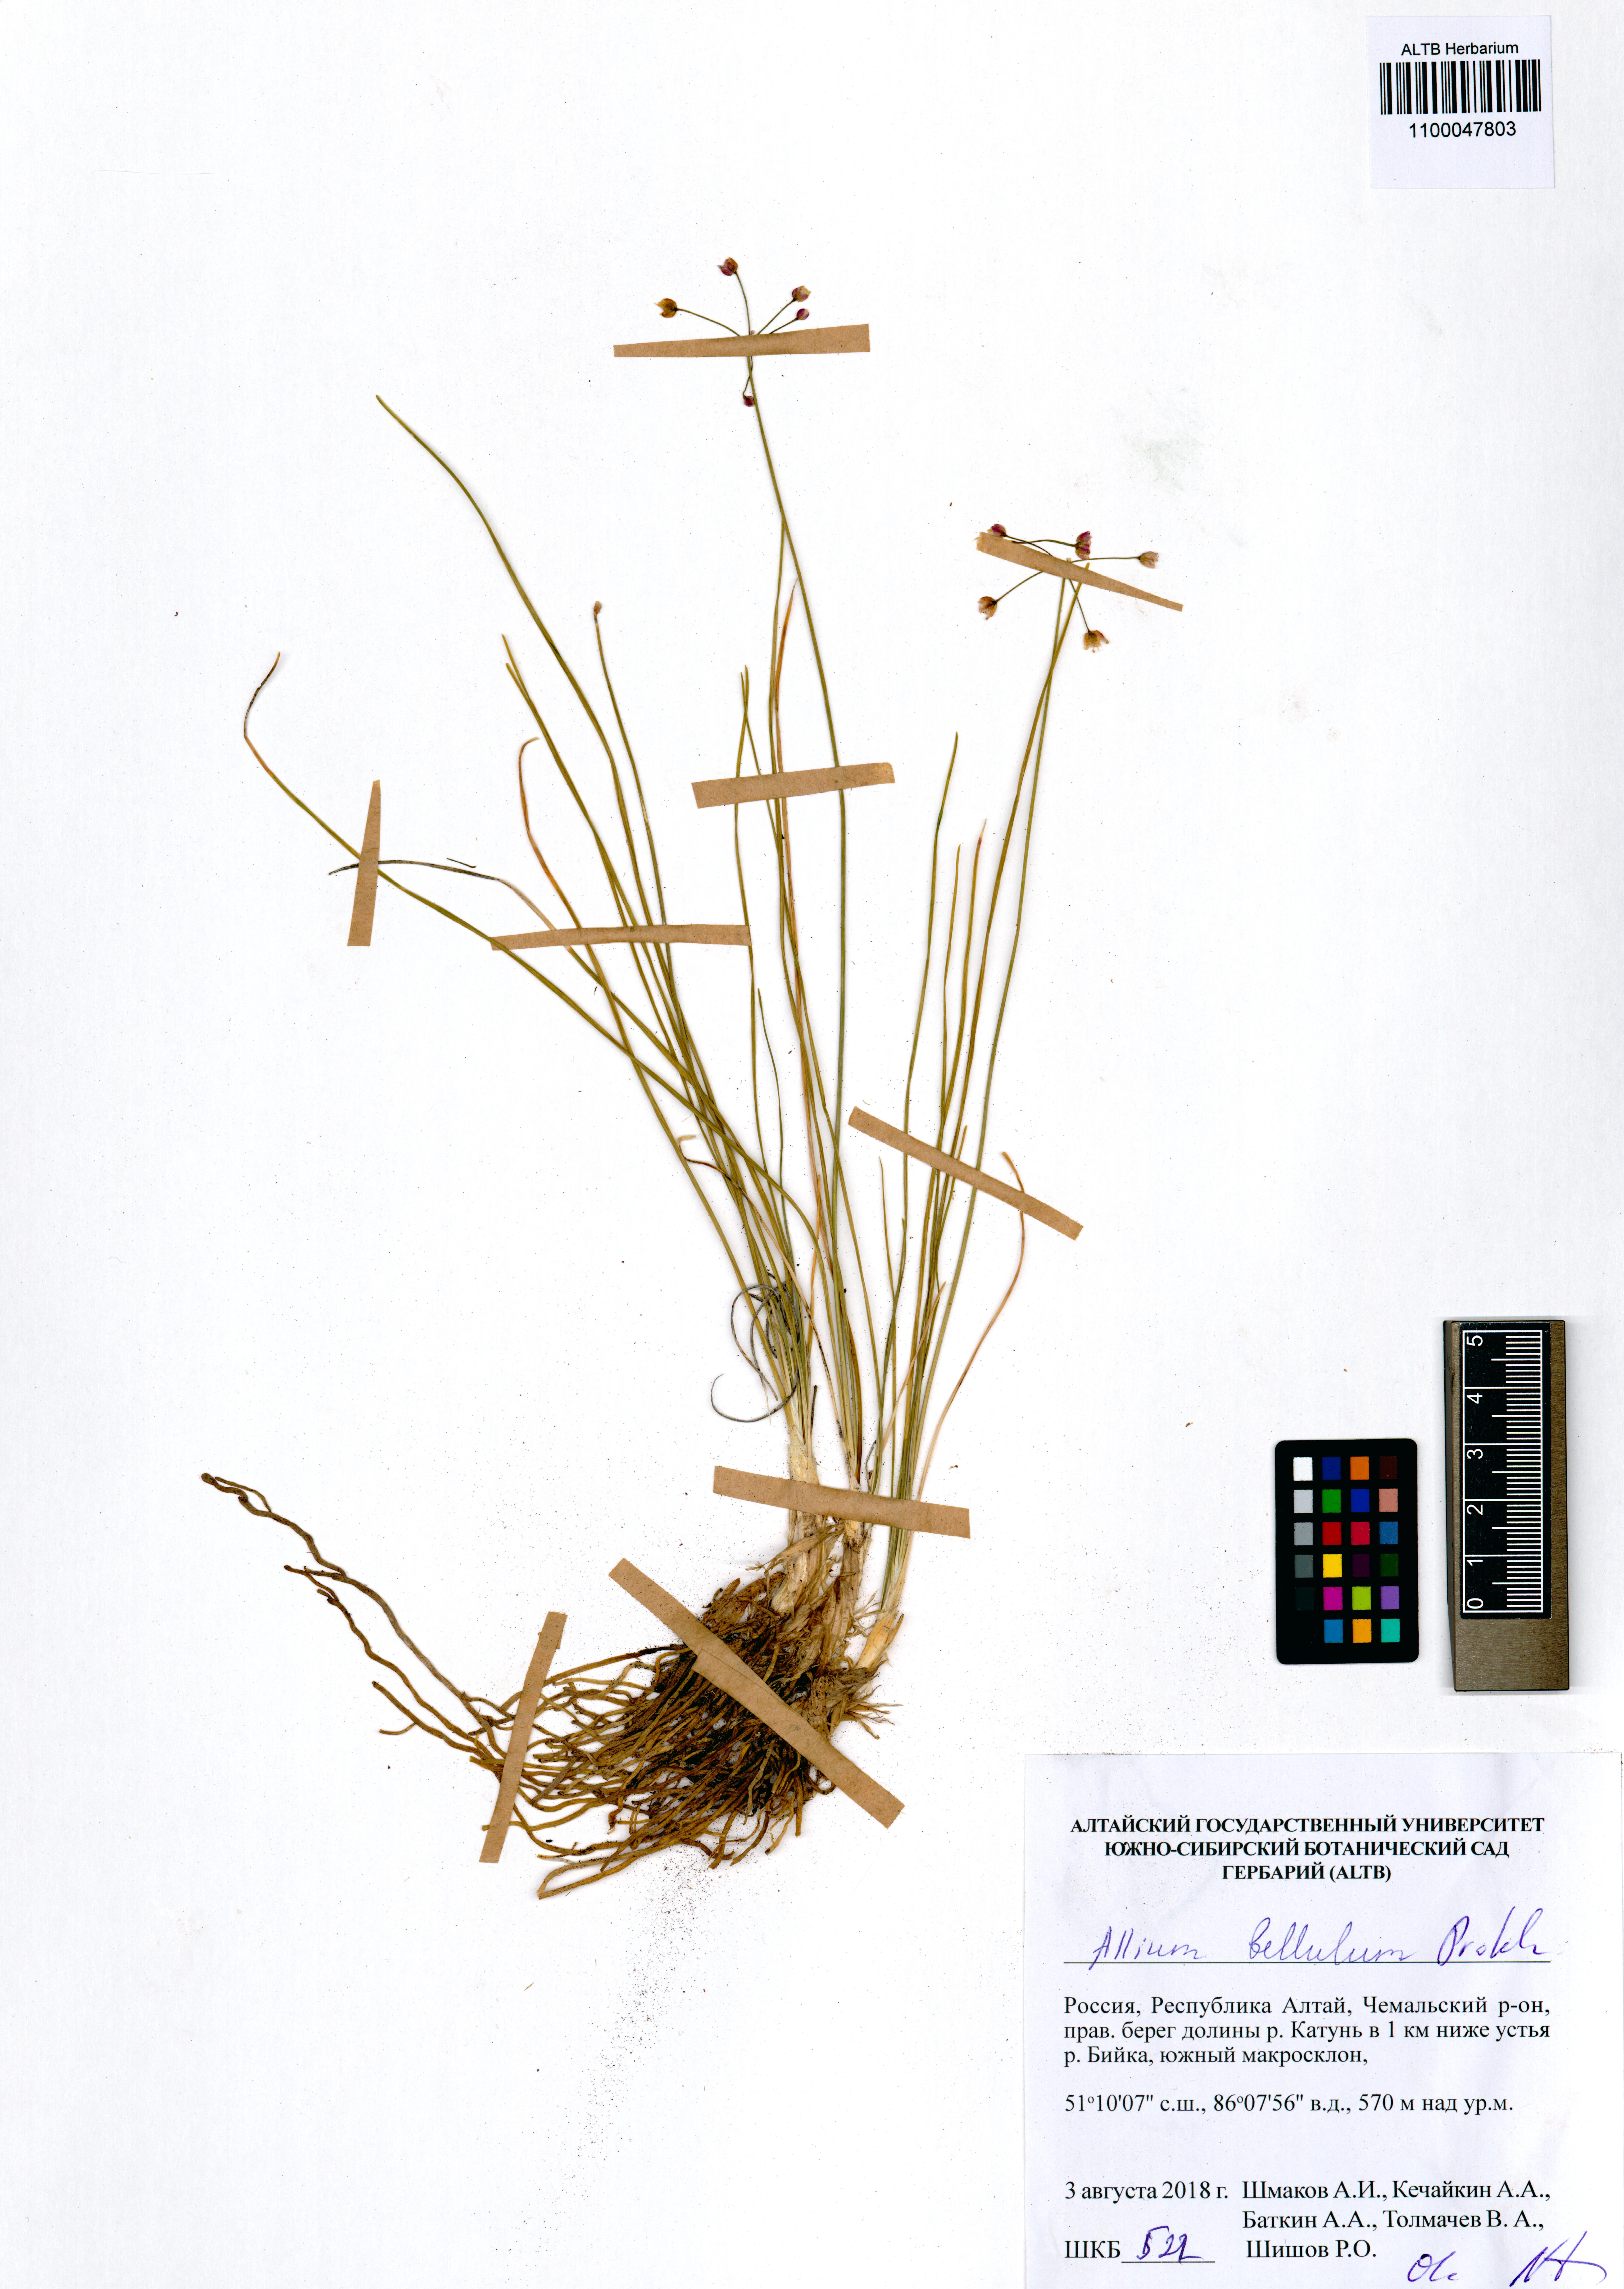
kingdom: Plantae
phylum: Tracheophyta
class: Liliopsida
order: Asparagales
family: Amaryllidaceae
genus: Allium
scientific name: Allium bellulum
